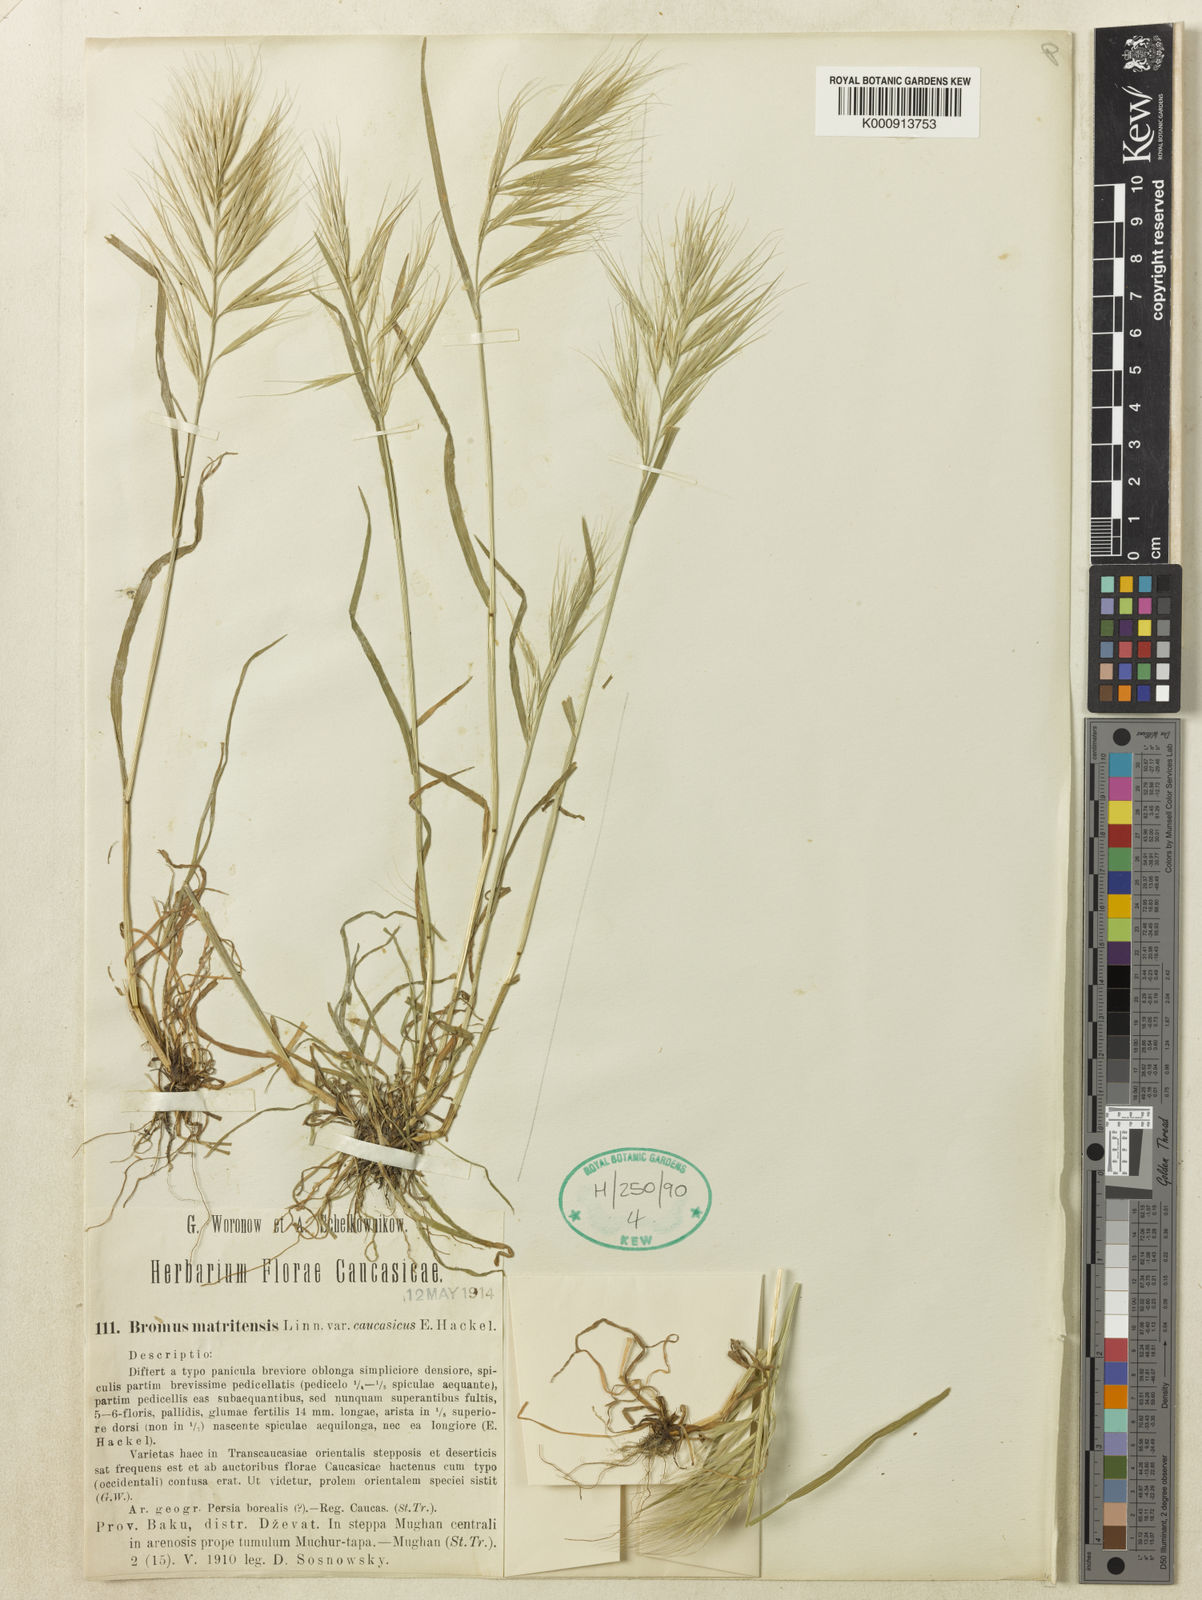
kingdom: Plantae
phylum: Tracheophyta
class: Liliopsida
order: Poales
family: Poaceae
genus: Bromus
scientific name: Bromus madritensis
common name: Compact brome
